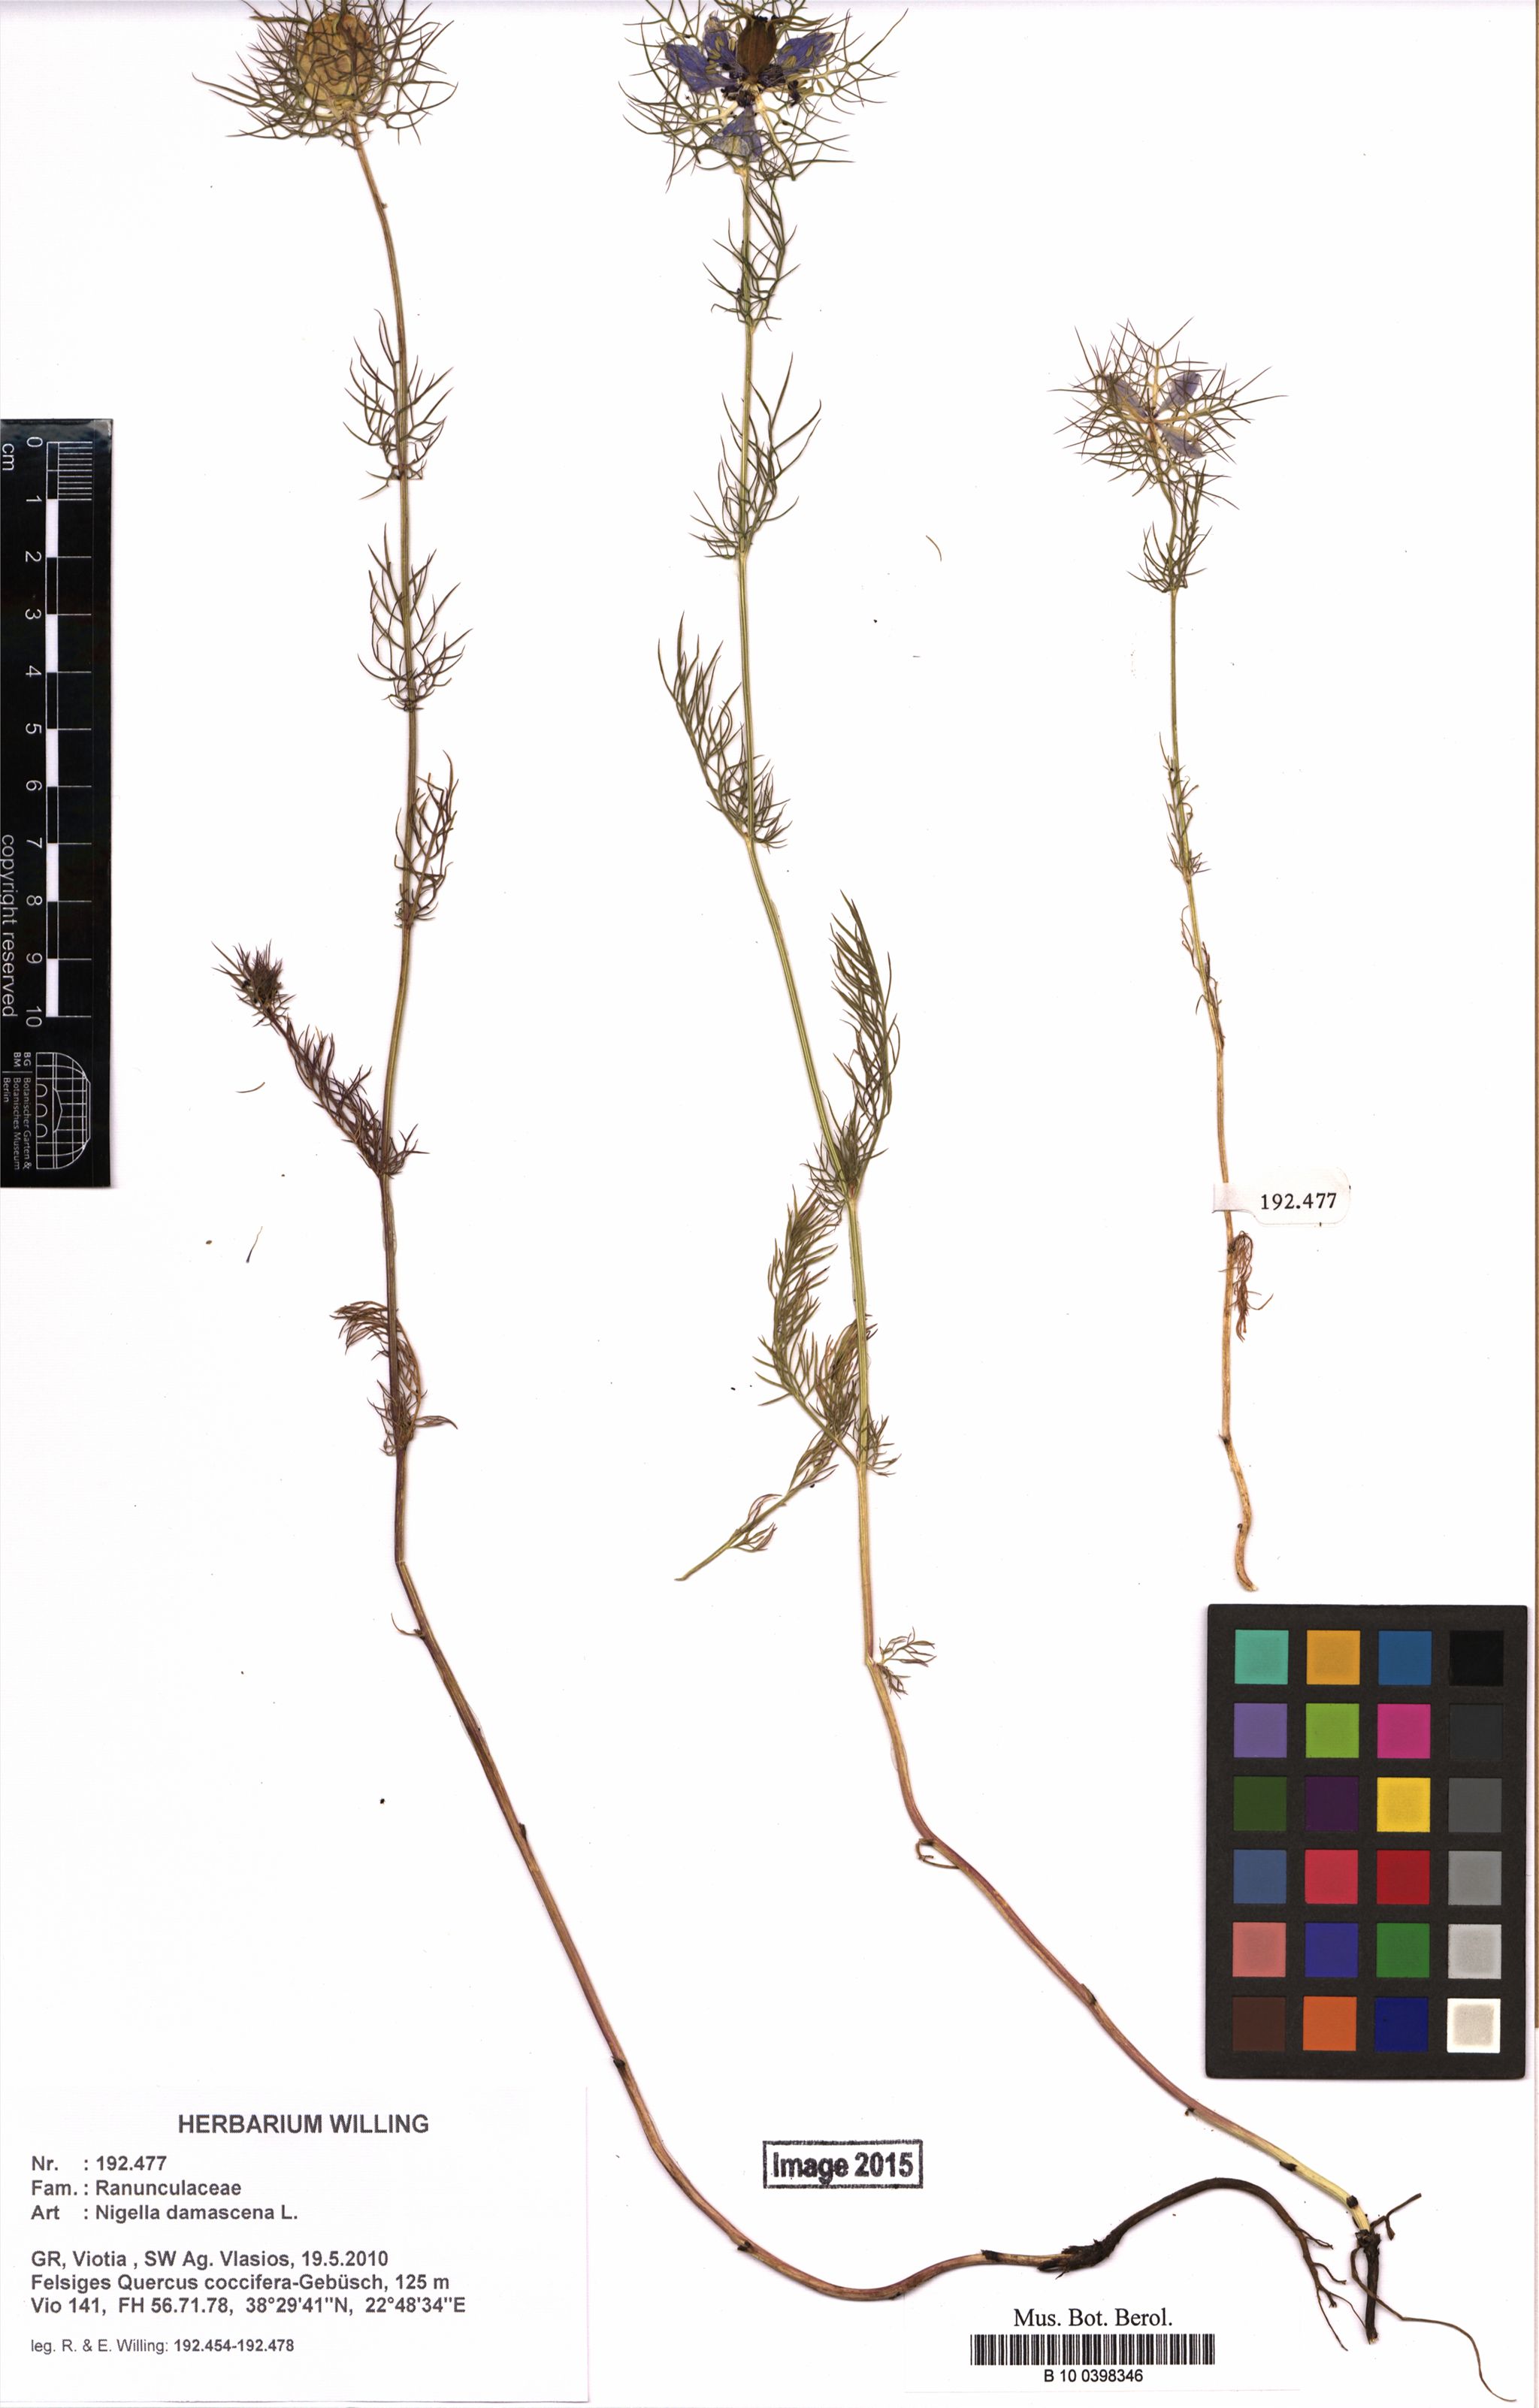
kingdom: Plantae
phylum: Tracheophyta
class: Magnoliopsida
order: Ranunculales
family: Ranunculaceae
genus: Nigella
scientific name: Nigella damascena
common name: Love-in-a-mist
